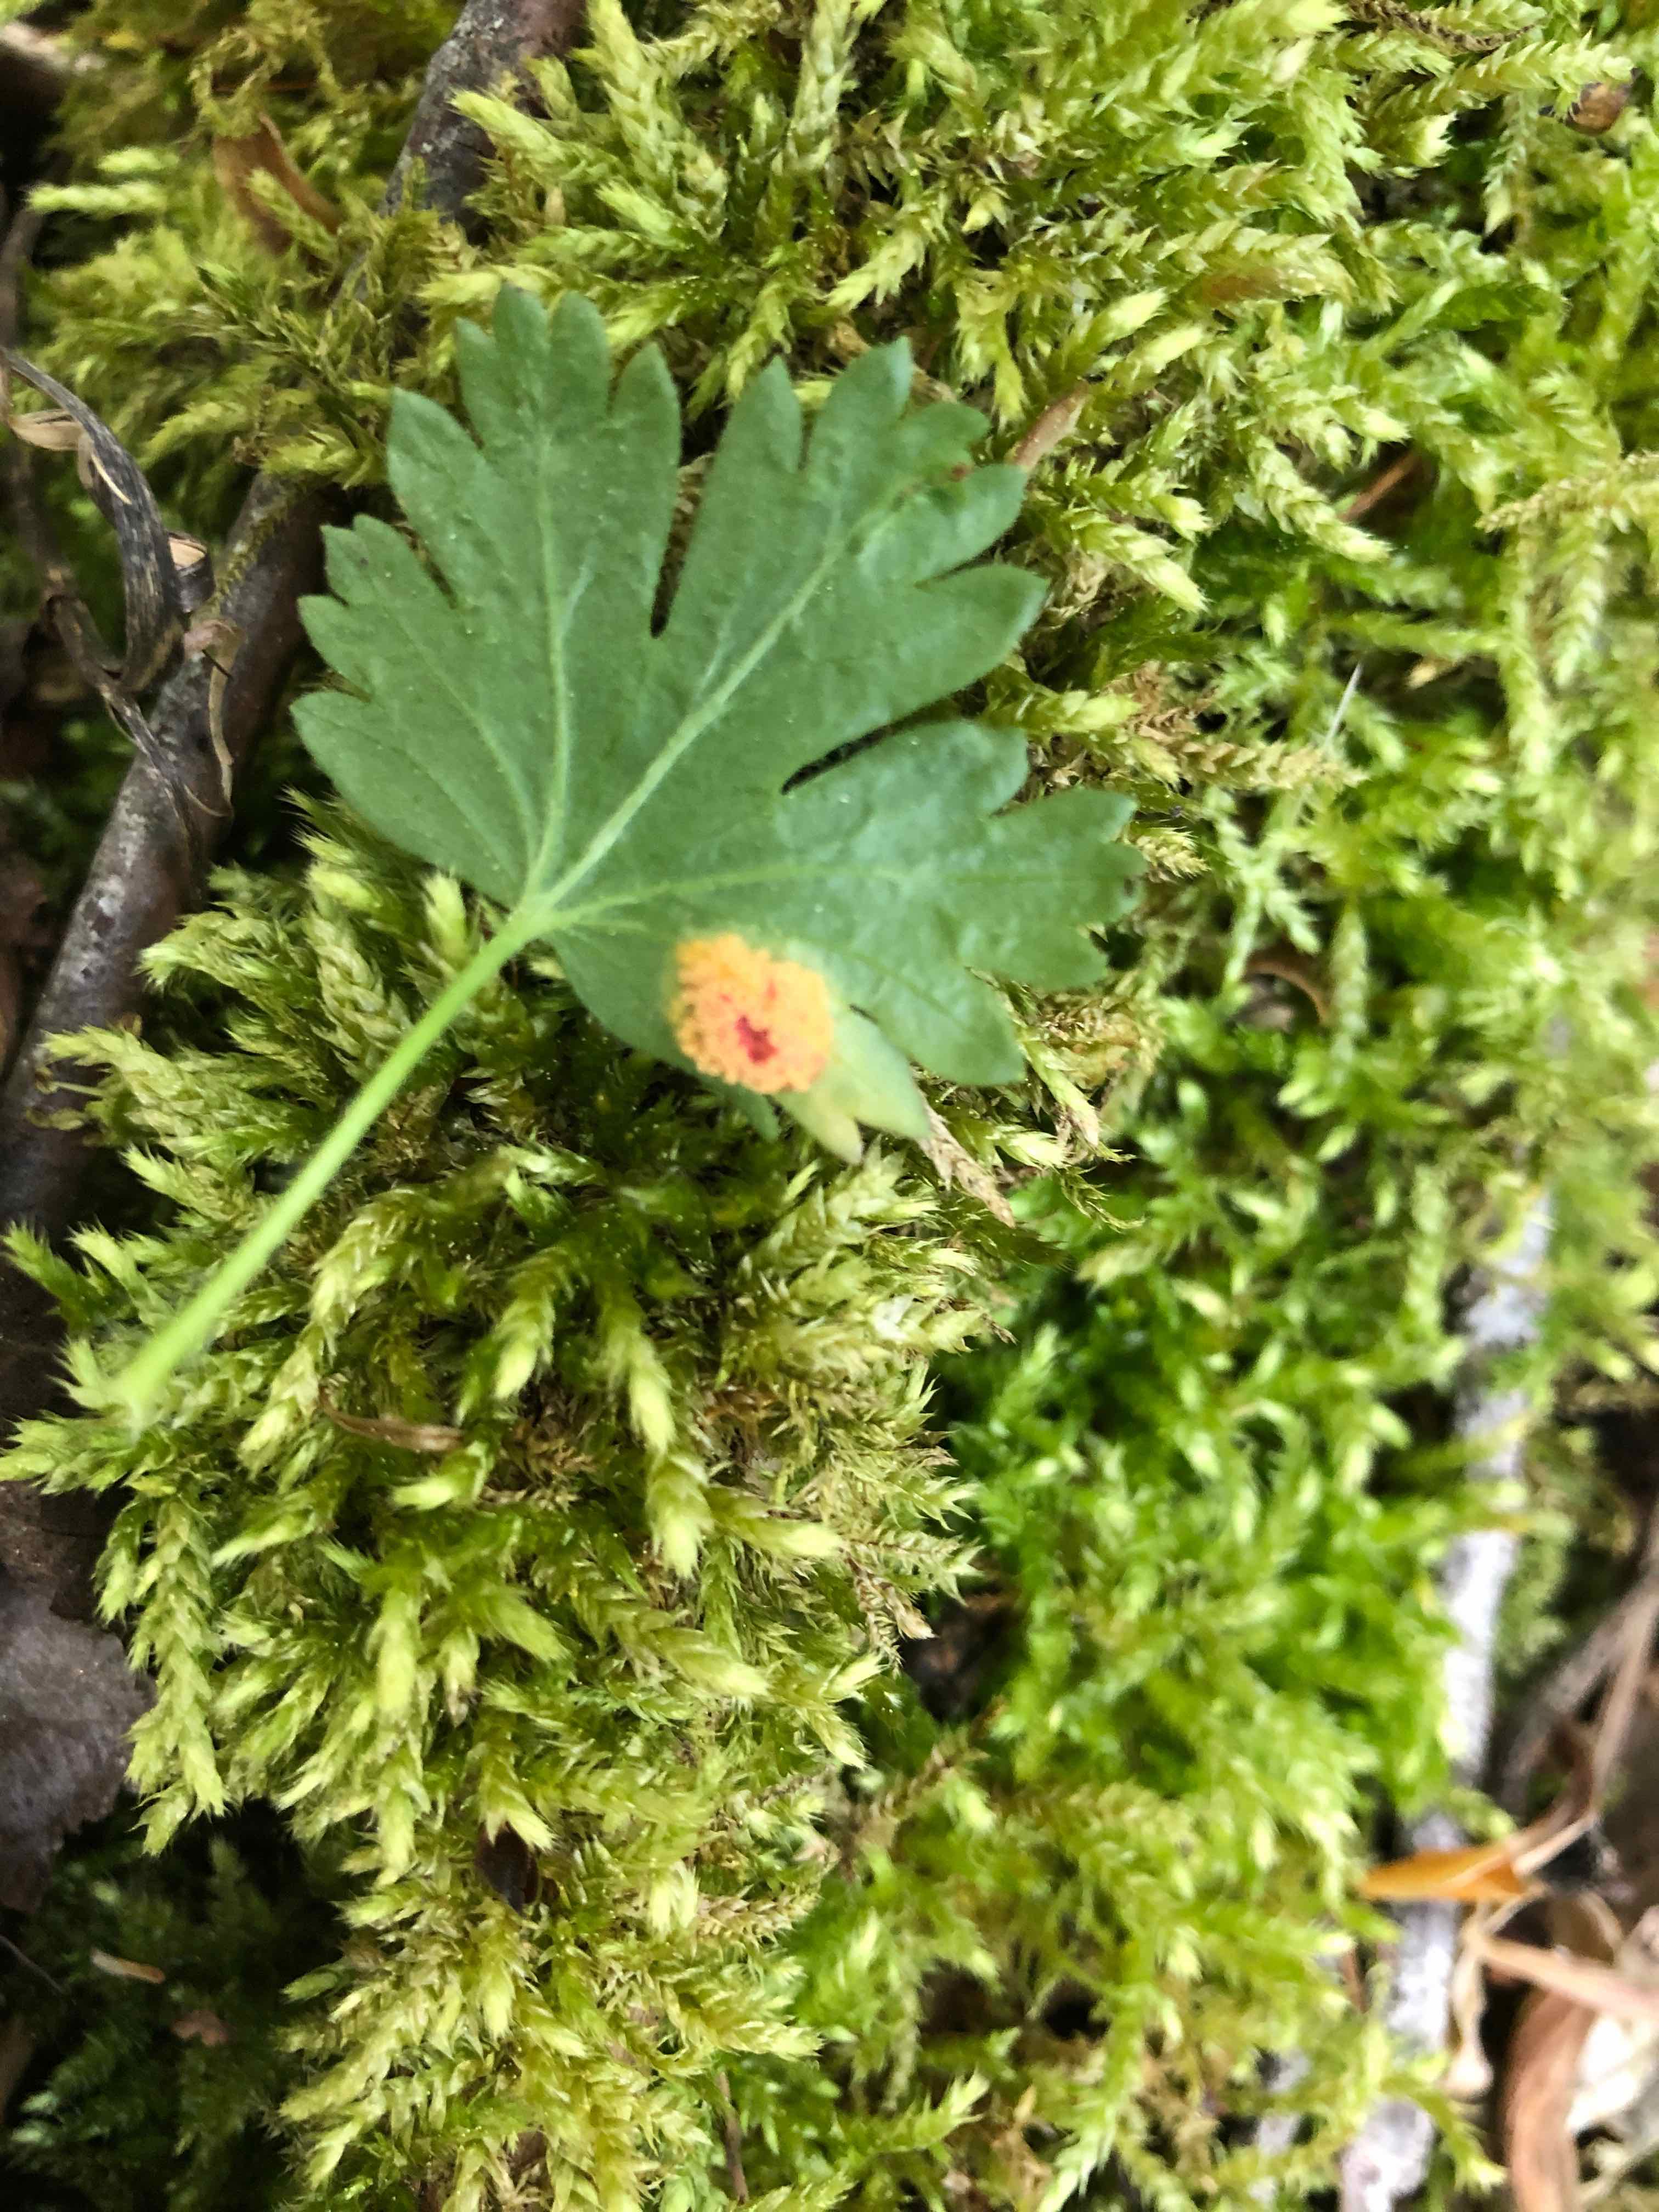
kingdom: Fungi
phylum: Basidiomycota
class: Pucciniomycetes
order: Pucciniales
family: Pucciniaceae
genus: Puccinia
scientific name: Puccinia caricina
